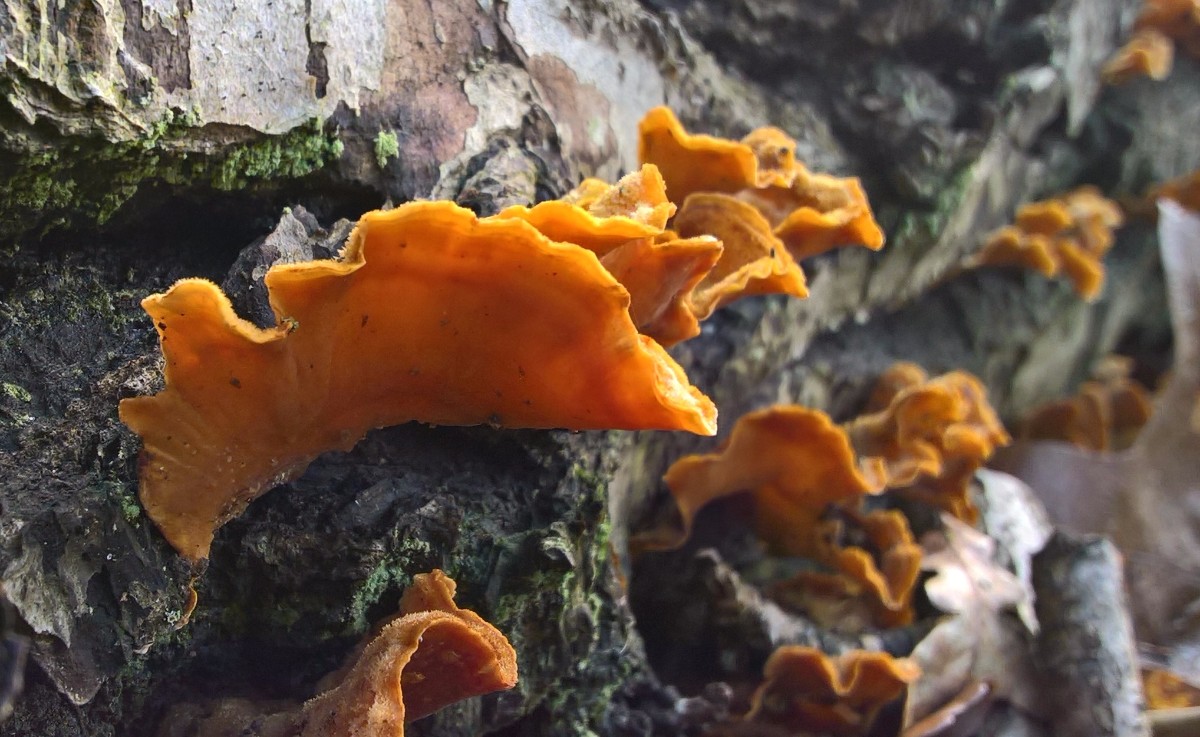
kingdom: Fungi
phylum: Basidiomycota
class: Agaricomycetes
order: Russulales
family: Stereaceae
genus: Stereum
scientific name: Stereum hirsutum
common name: håret lædersvamp
